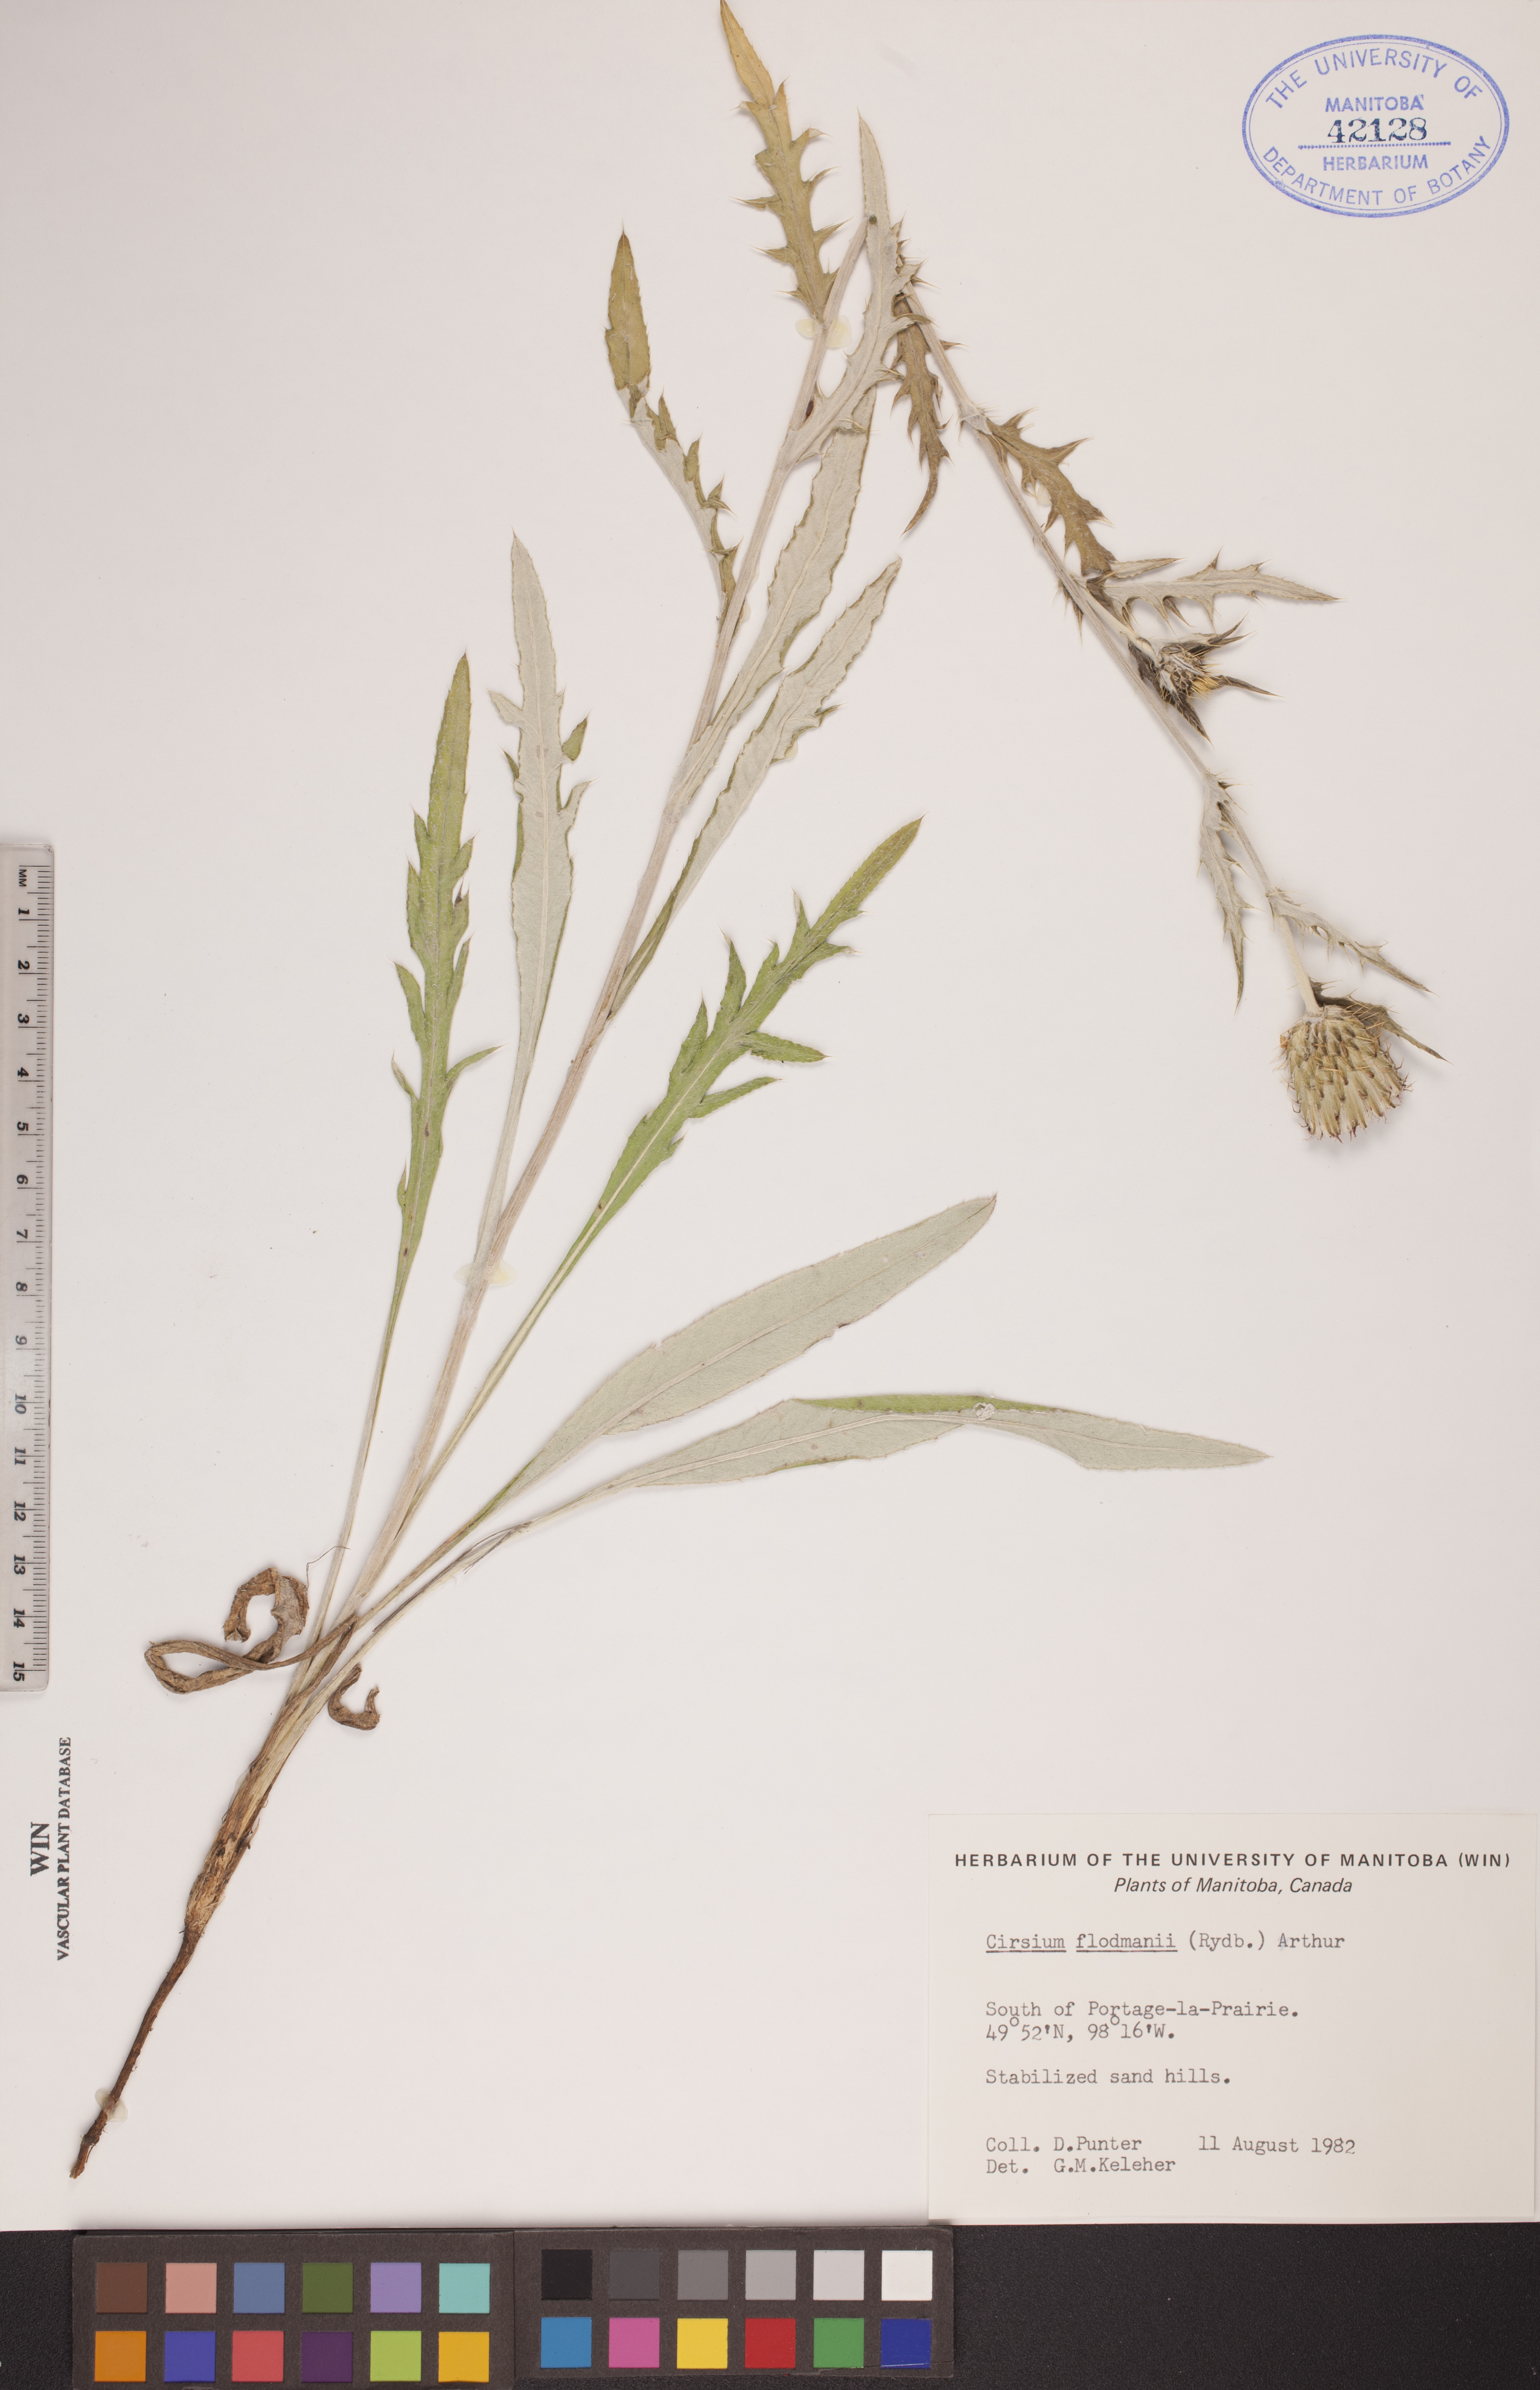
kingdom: Plantae
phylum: Tracheophyta
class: Magnoliopsida
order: Asterales
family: Asteraceae
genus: Cirsium
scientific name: Cirsium flodmanii
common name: Flodman's thistle
